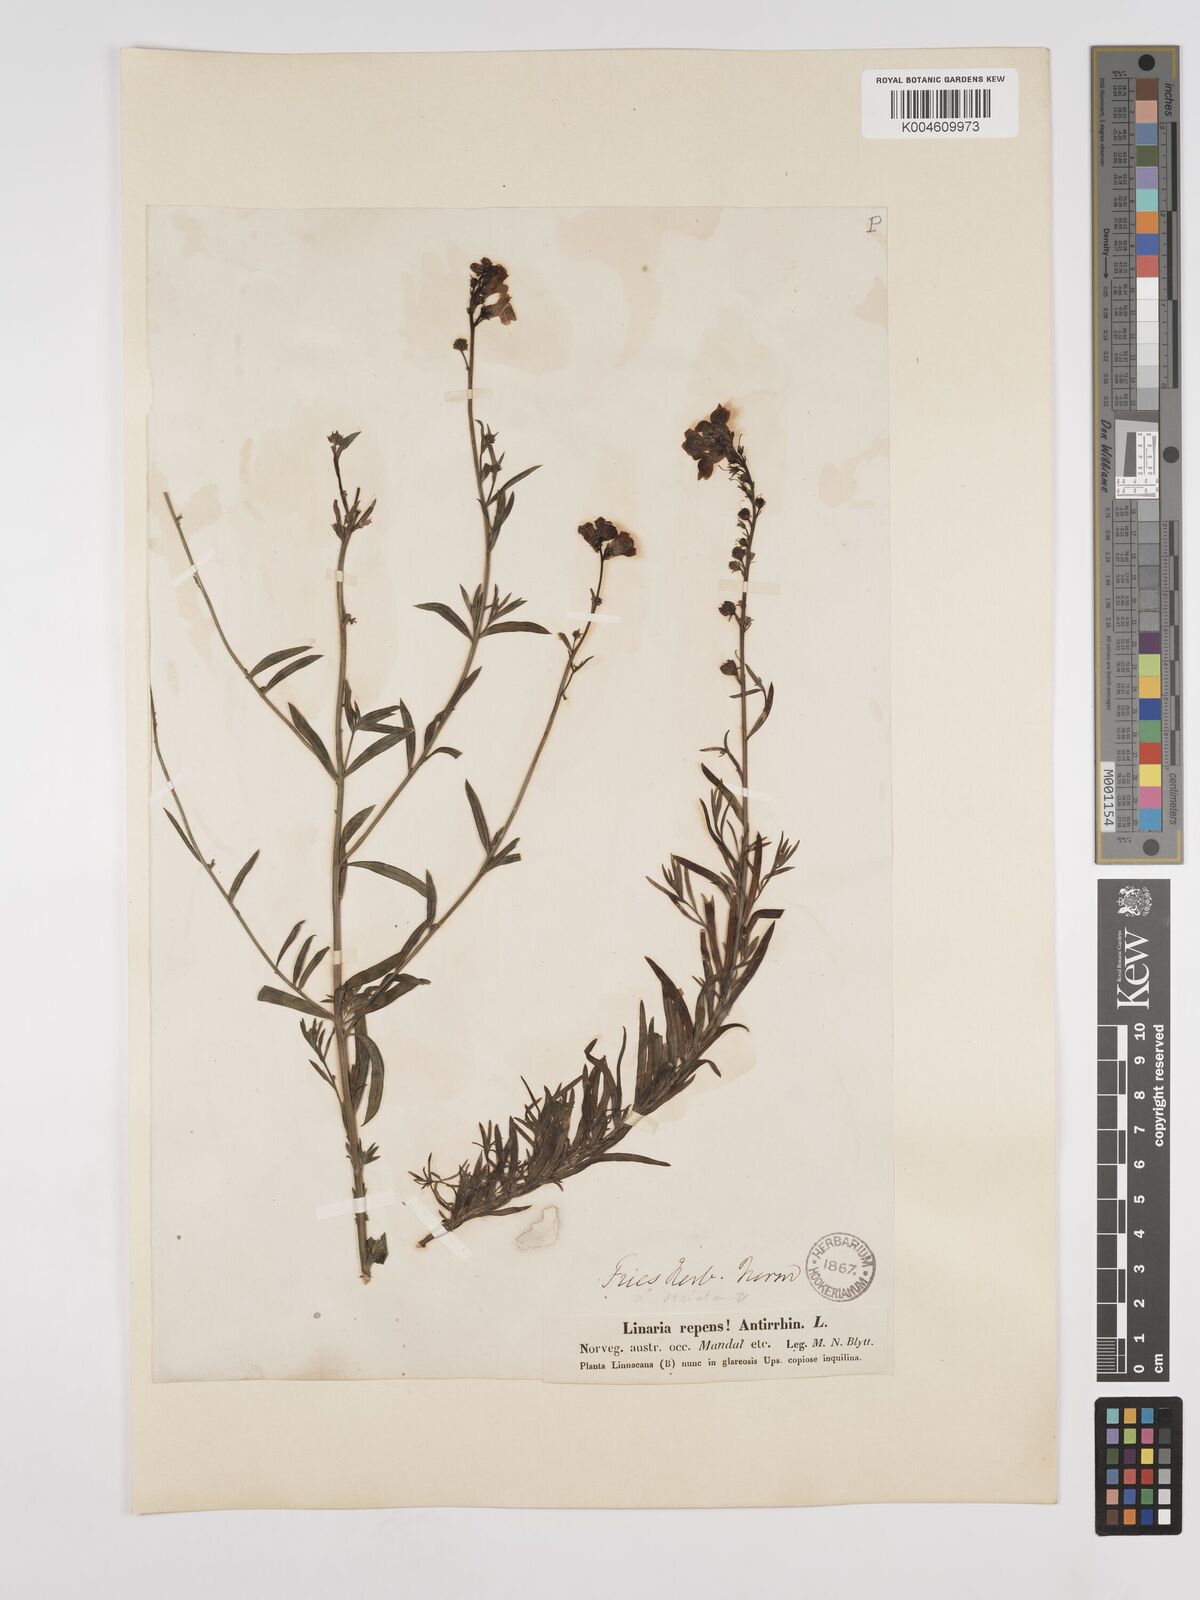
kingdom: Plantae
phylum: Tracheophyta
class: Magnoliopsida
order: Lamiales
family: Plantaginaceae
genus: Linaria
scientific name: Linaria
